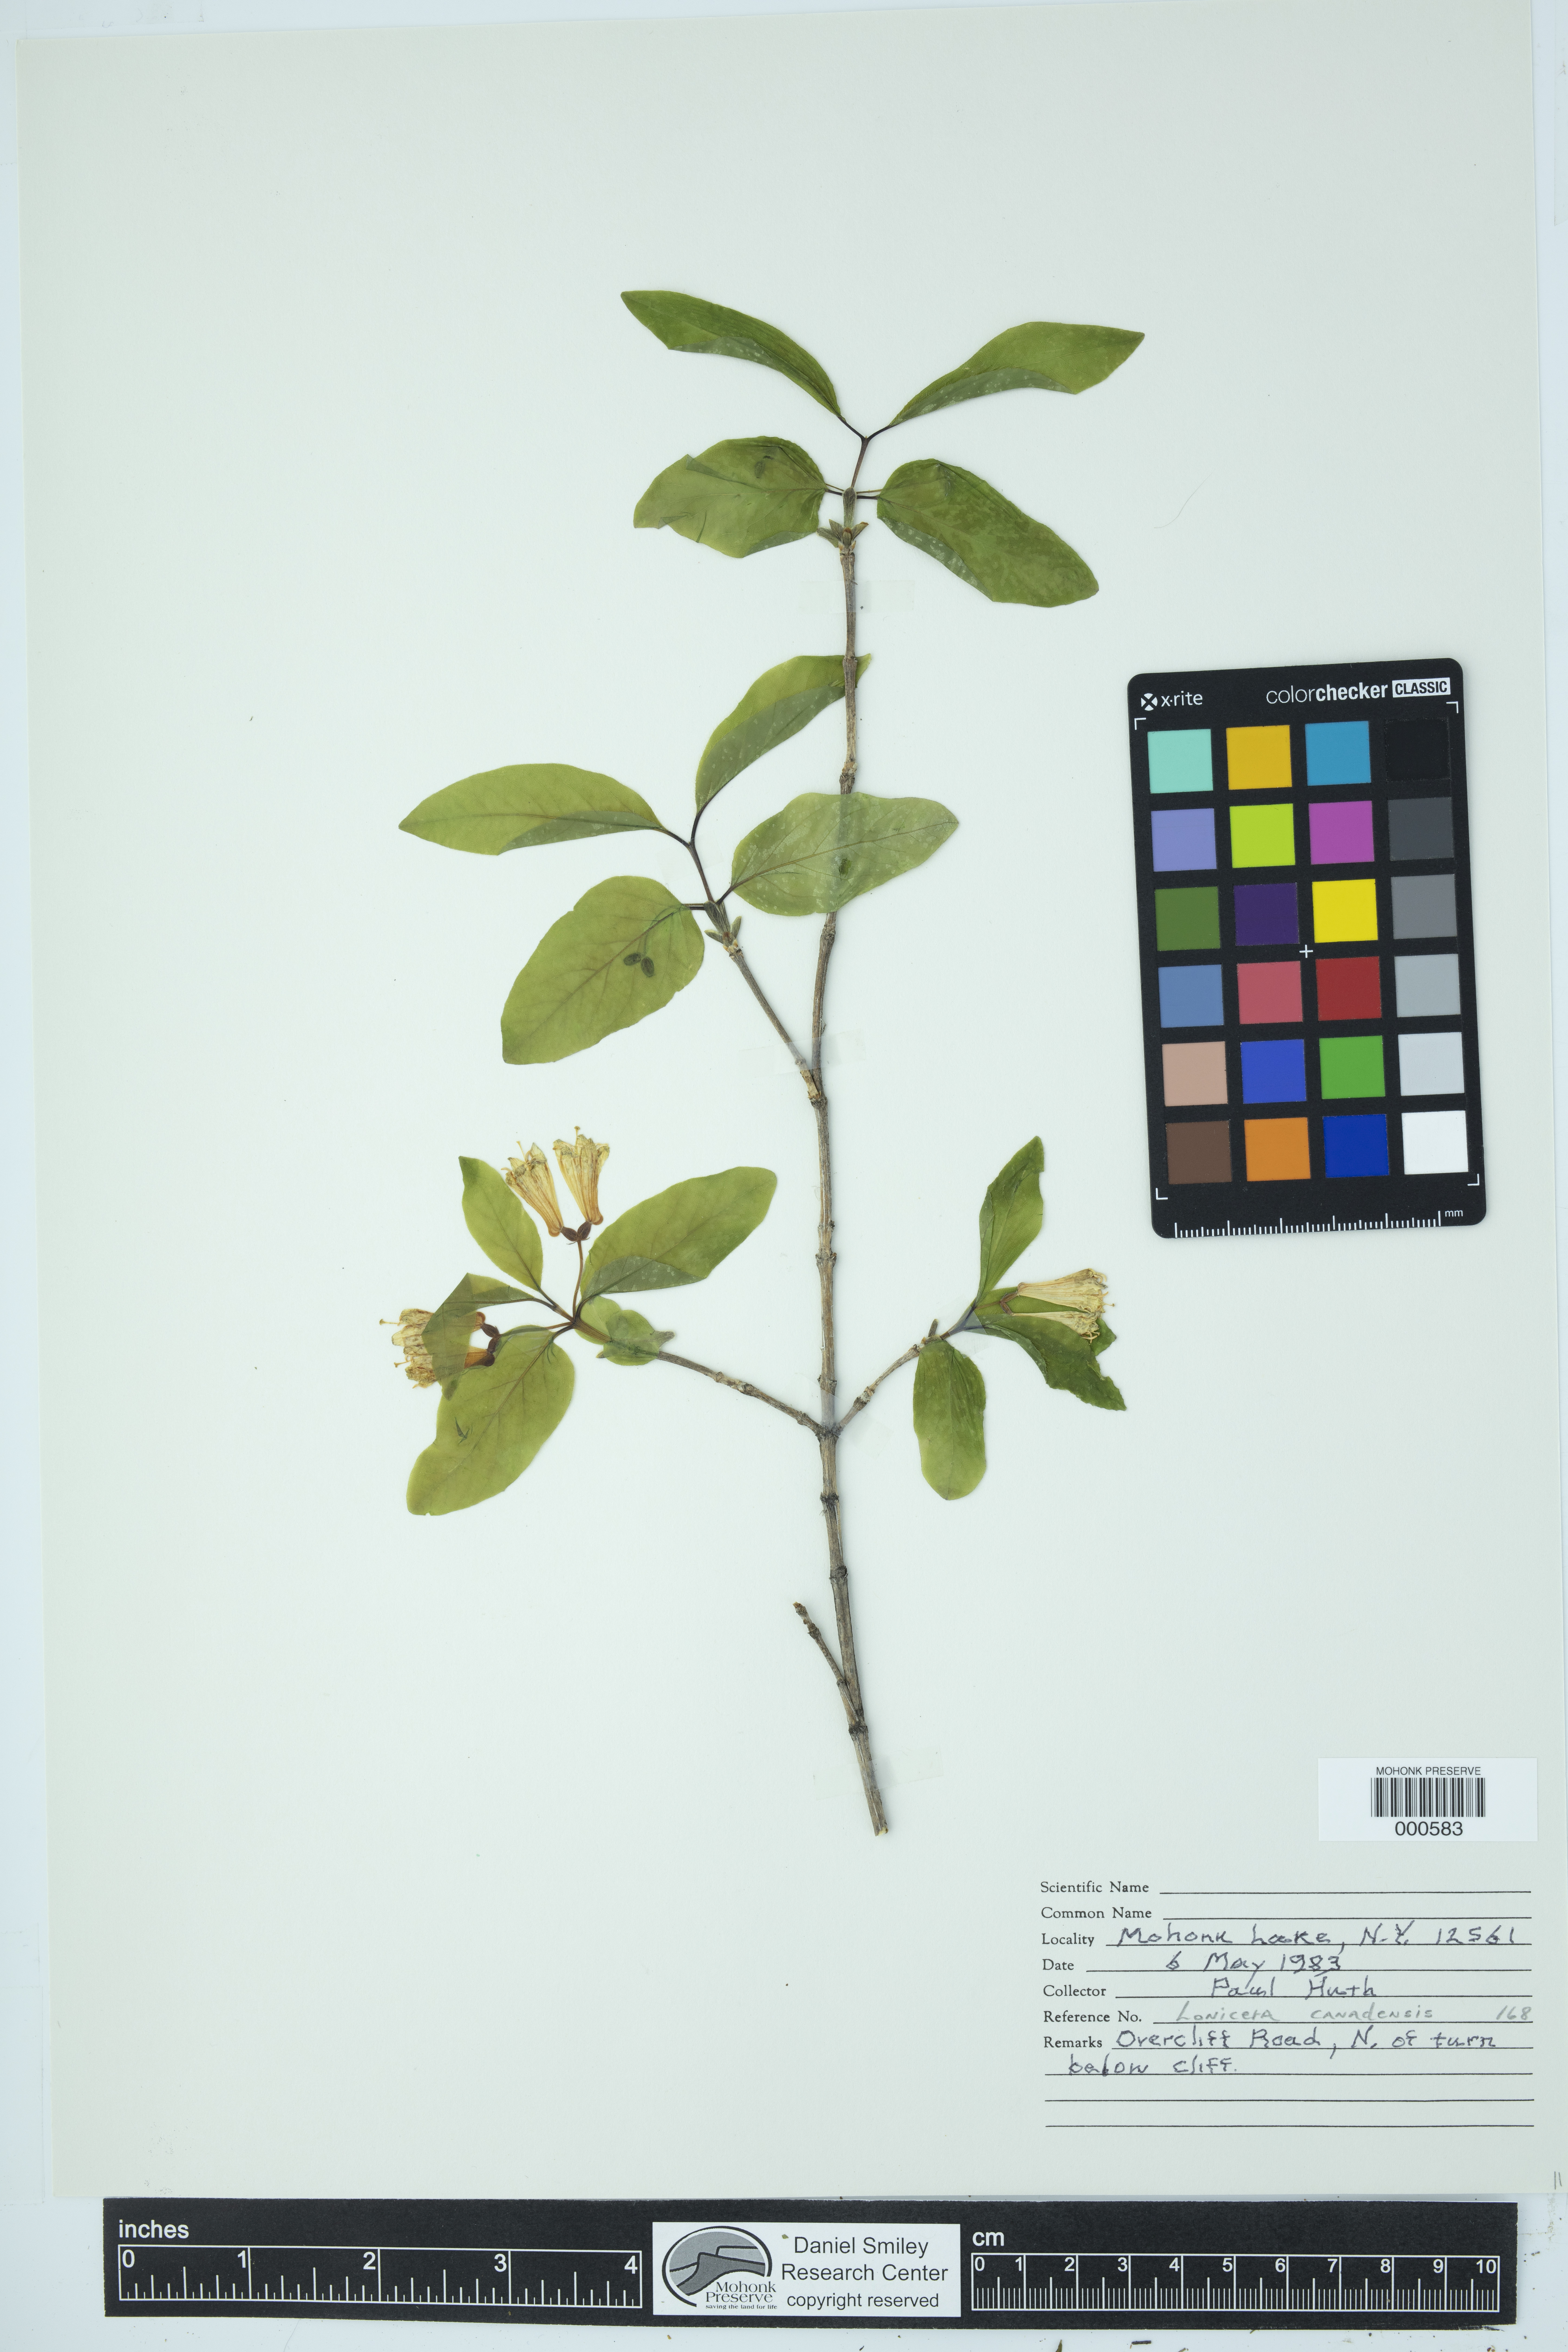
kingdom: Plantae
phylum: Tracheophyta
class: Magnoliopsida
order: Dipsacales
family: Caprifoliaceae
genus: Lonicera
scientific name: Lonicera canadensis
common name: American fly-honeysuckle
